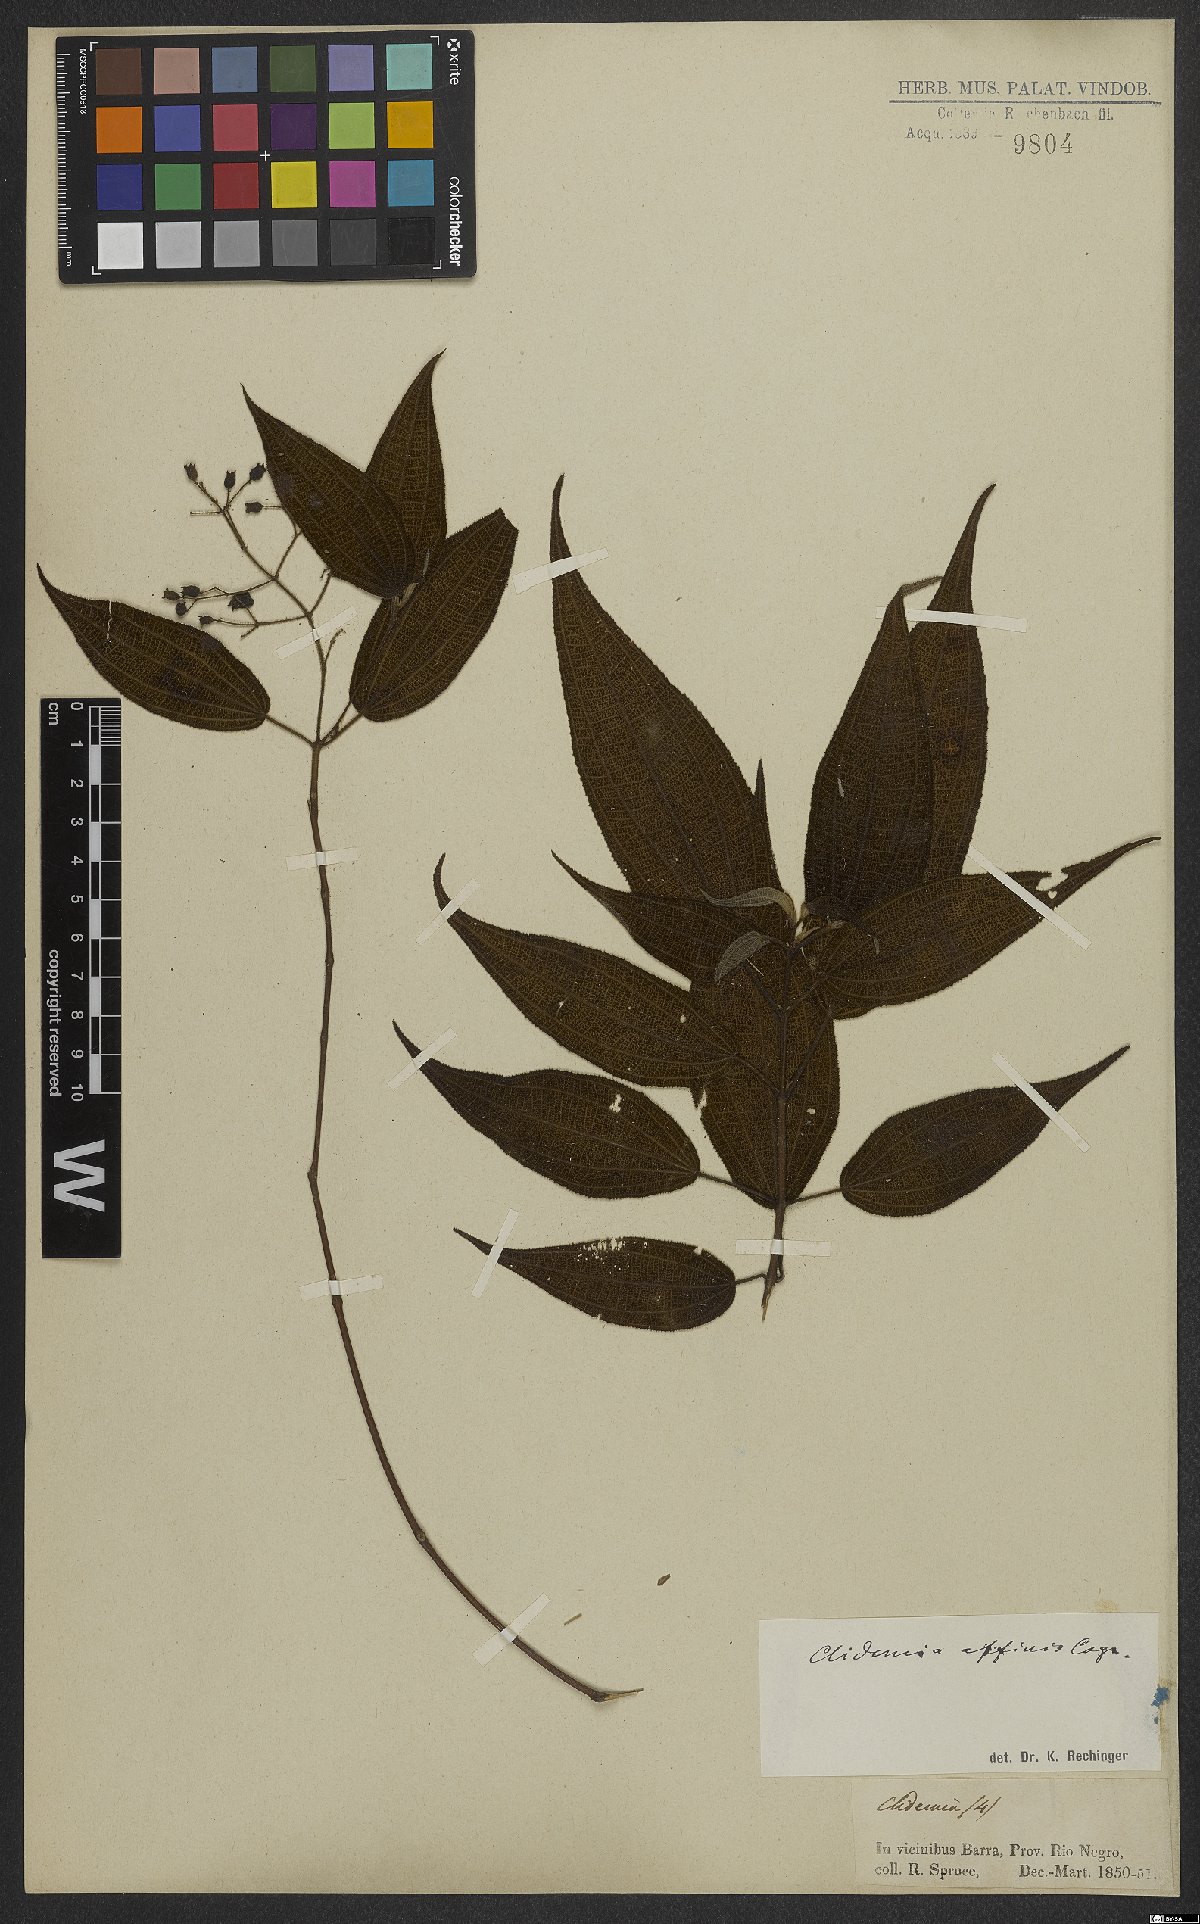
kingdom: Plantae
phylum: Tracheophyta
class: Magnoliopsida
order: Myrtales
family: Melastomataceae
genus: Miconia
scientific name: Miconia bullatifolia
